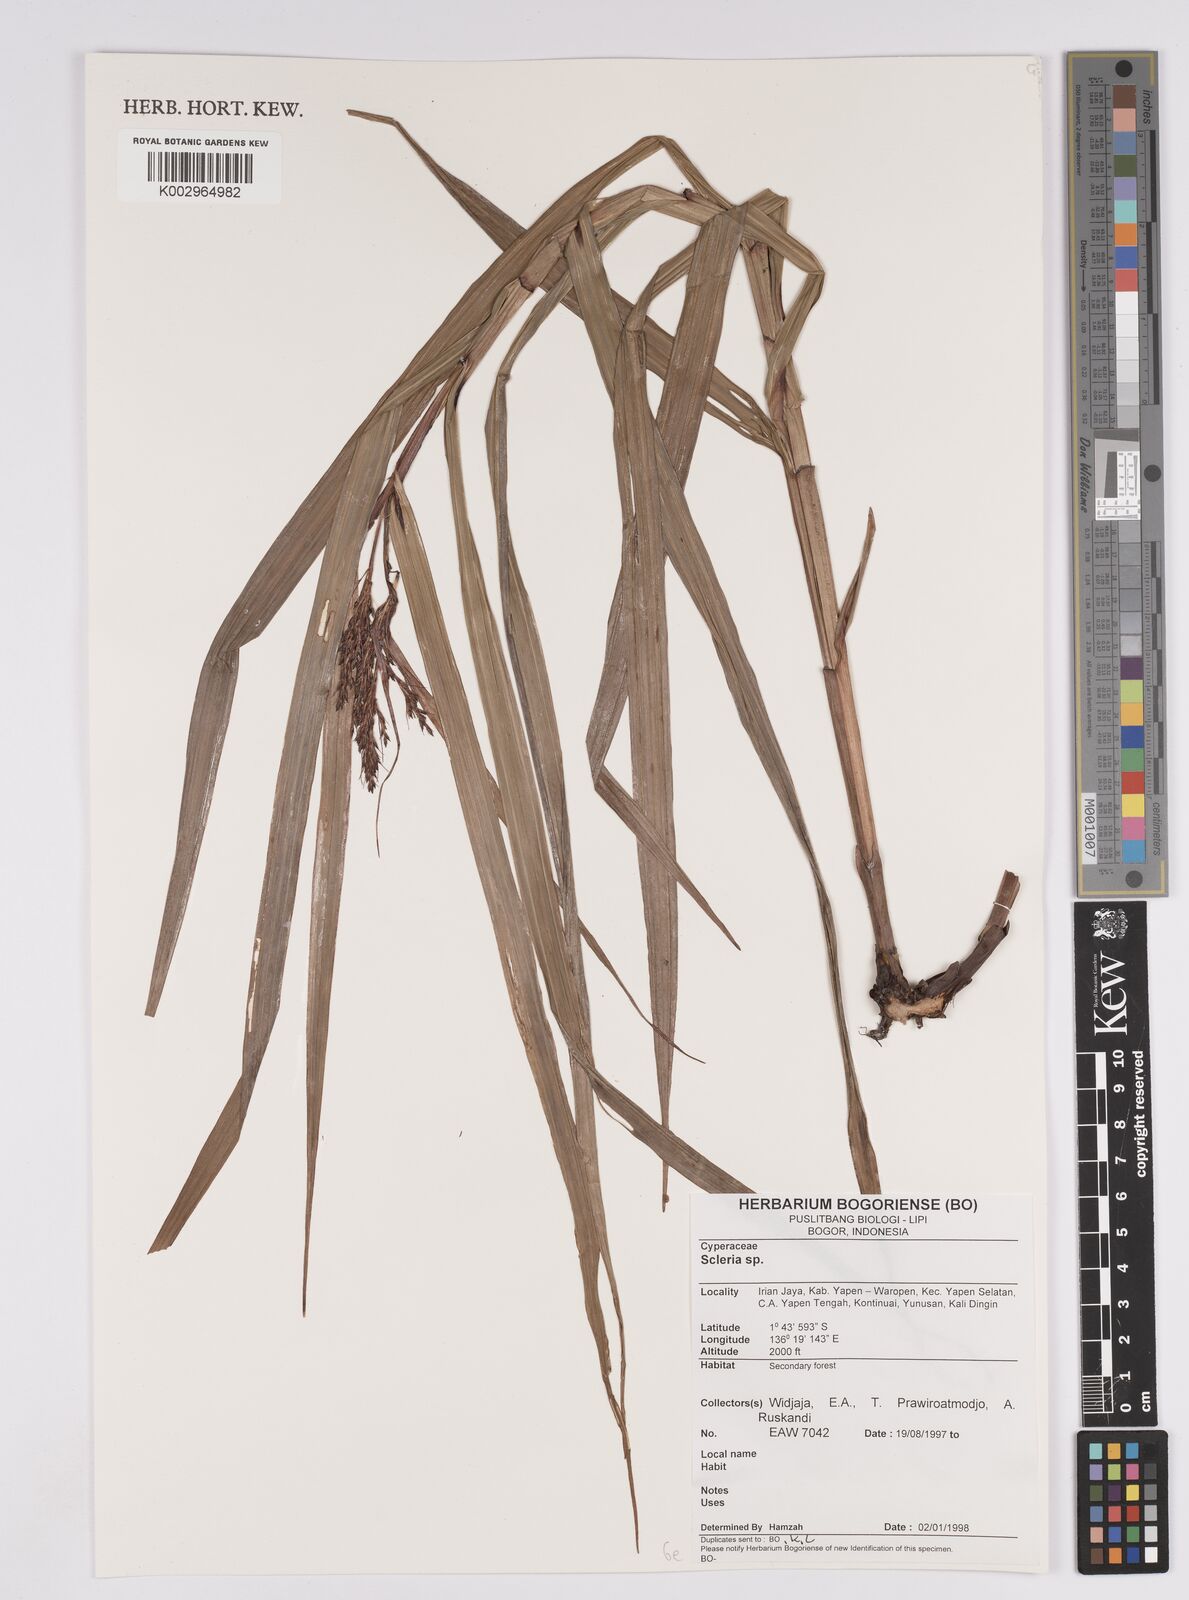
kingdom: Plantae
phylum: Tracheophyta
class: Liliopsida
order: Poales
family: Cyperaceae
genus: Scleria
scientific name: Scleria
